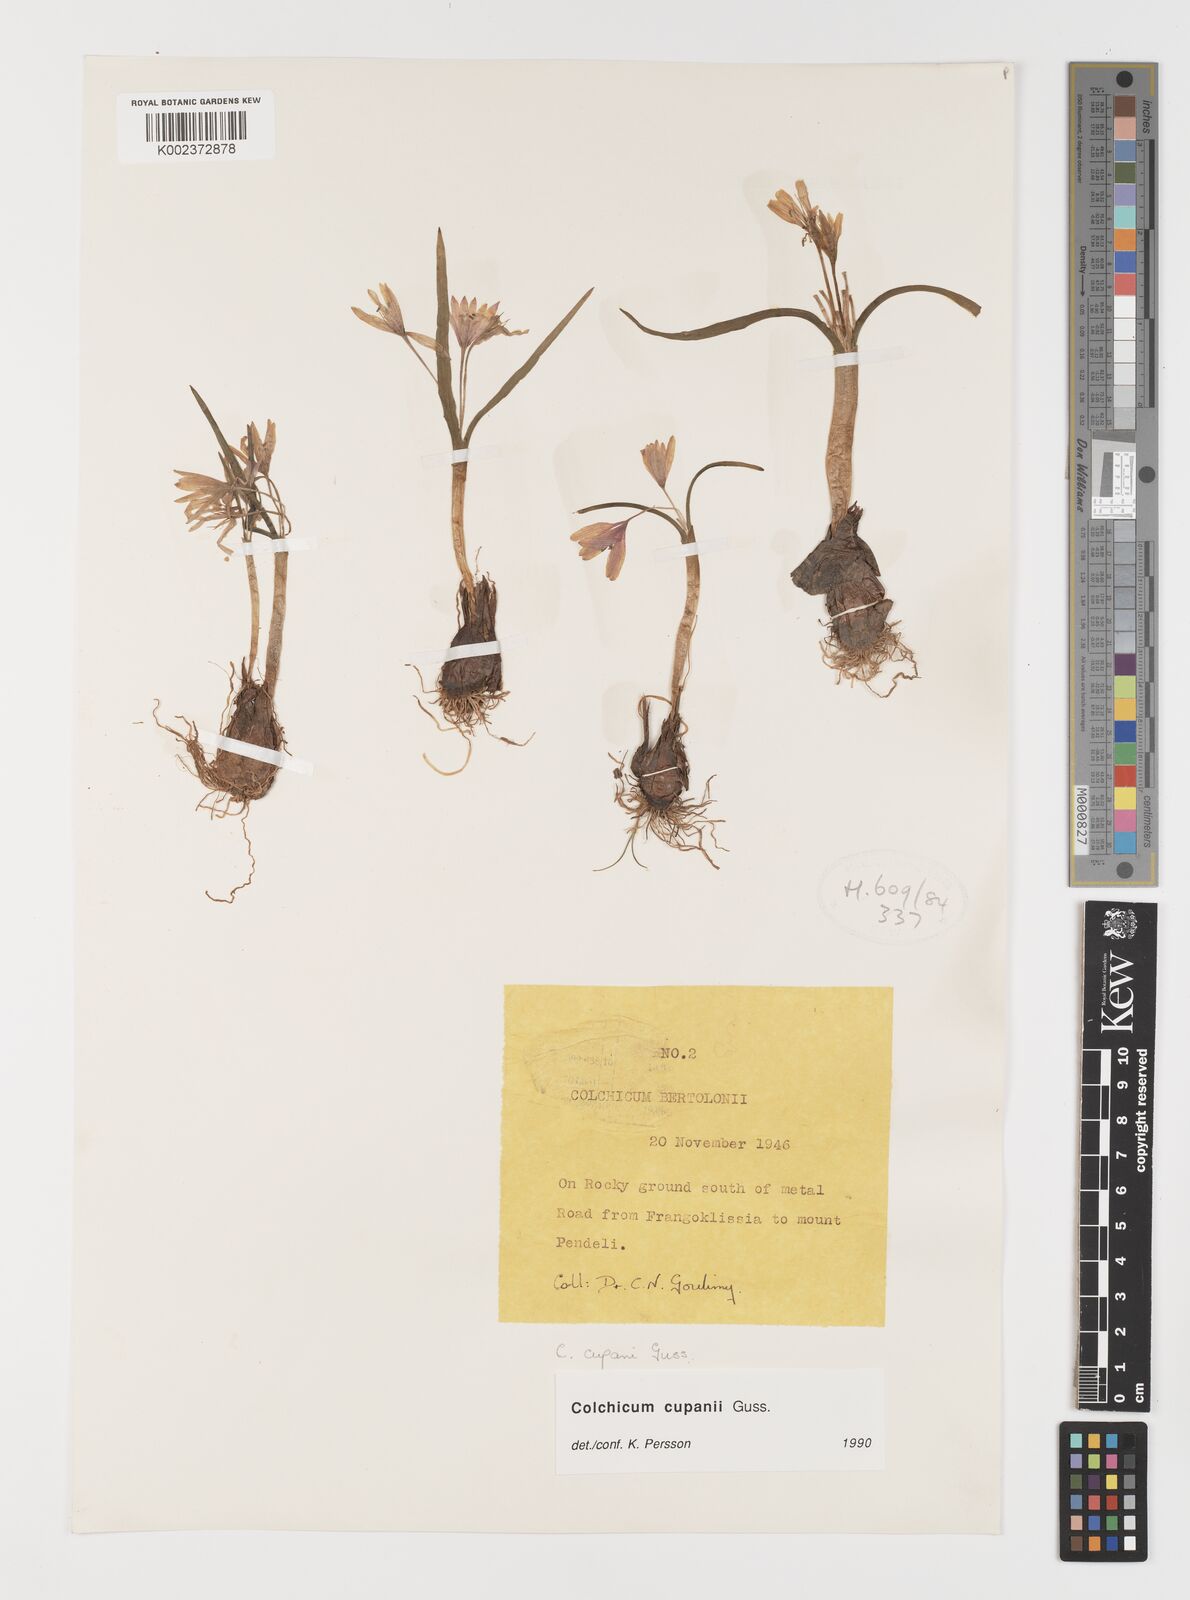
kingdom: Plantae
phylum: Tracheophyta
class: Liliopsida
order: Liliales
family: Colchicaceae
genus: Colchicum
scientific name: Colchicum cupanii
